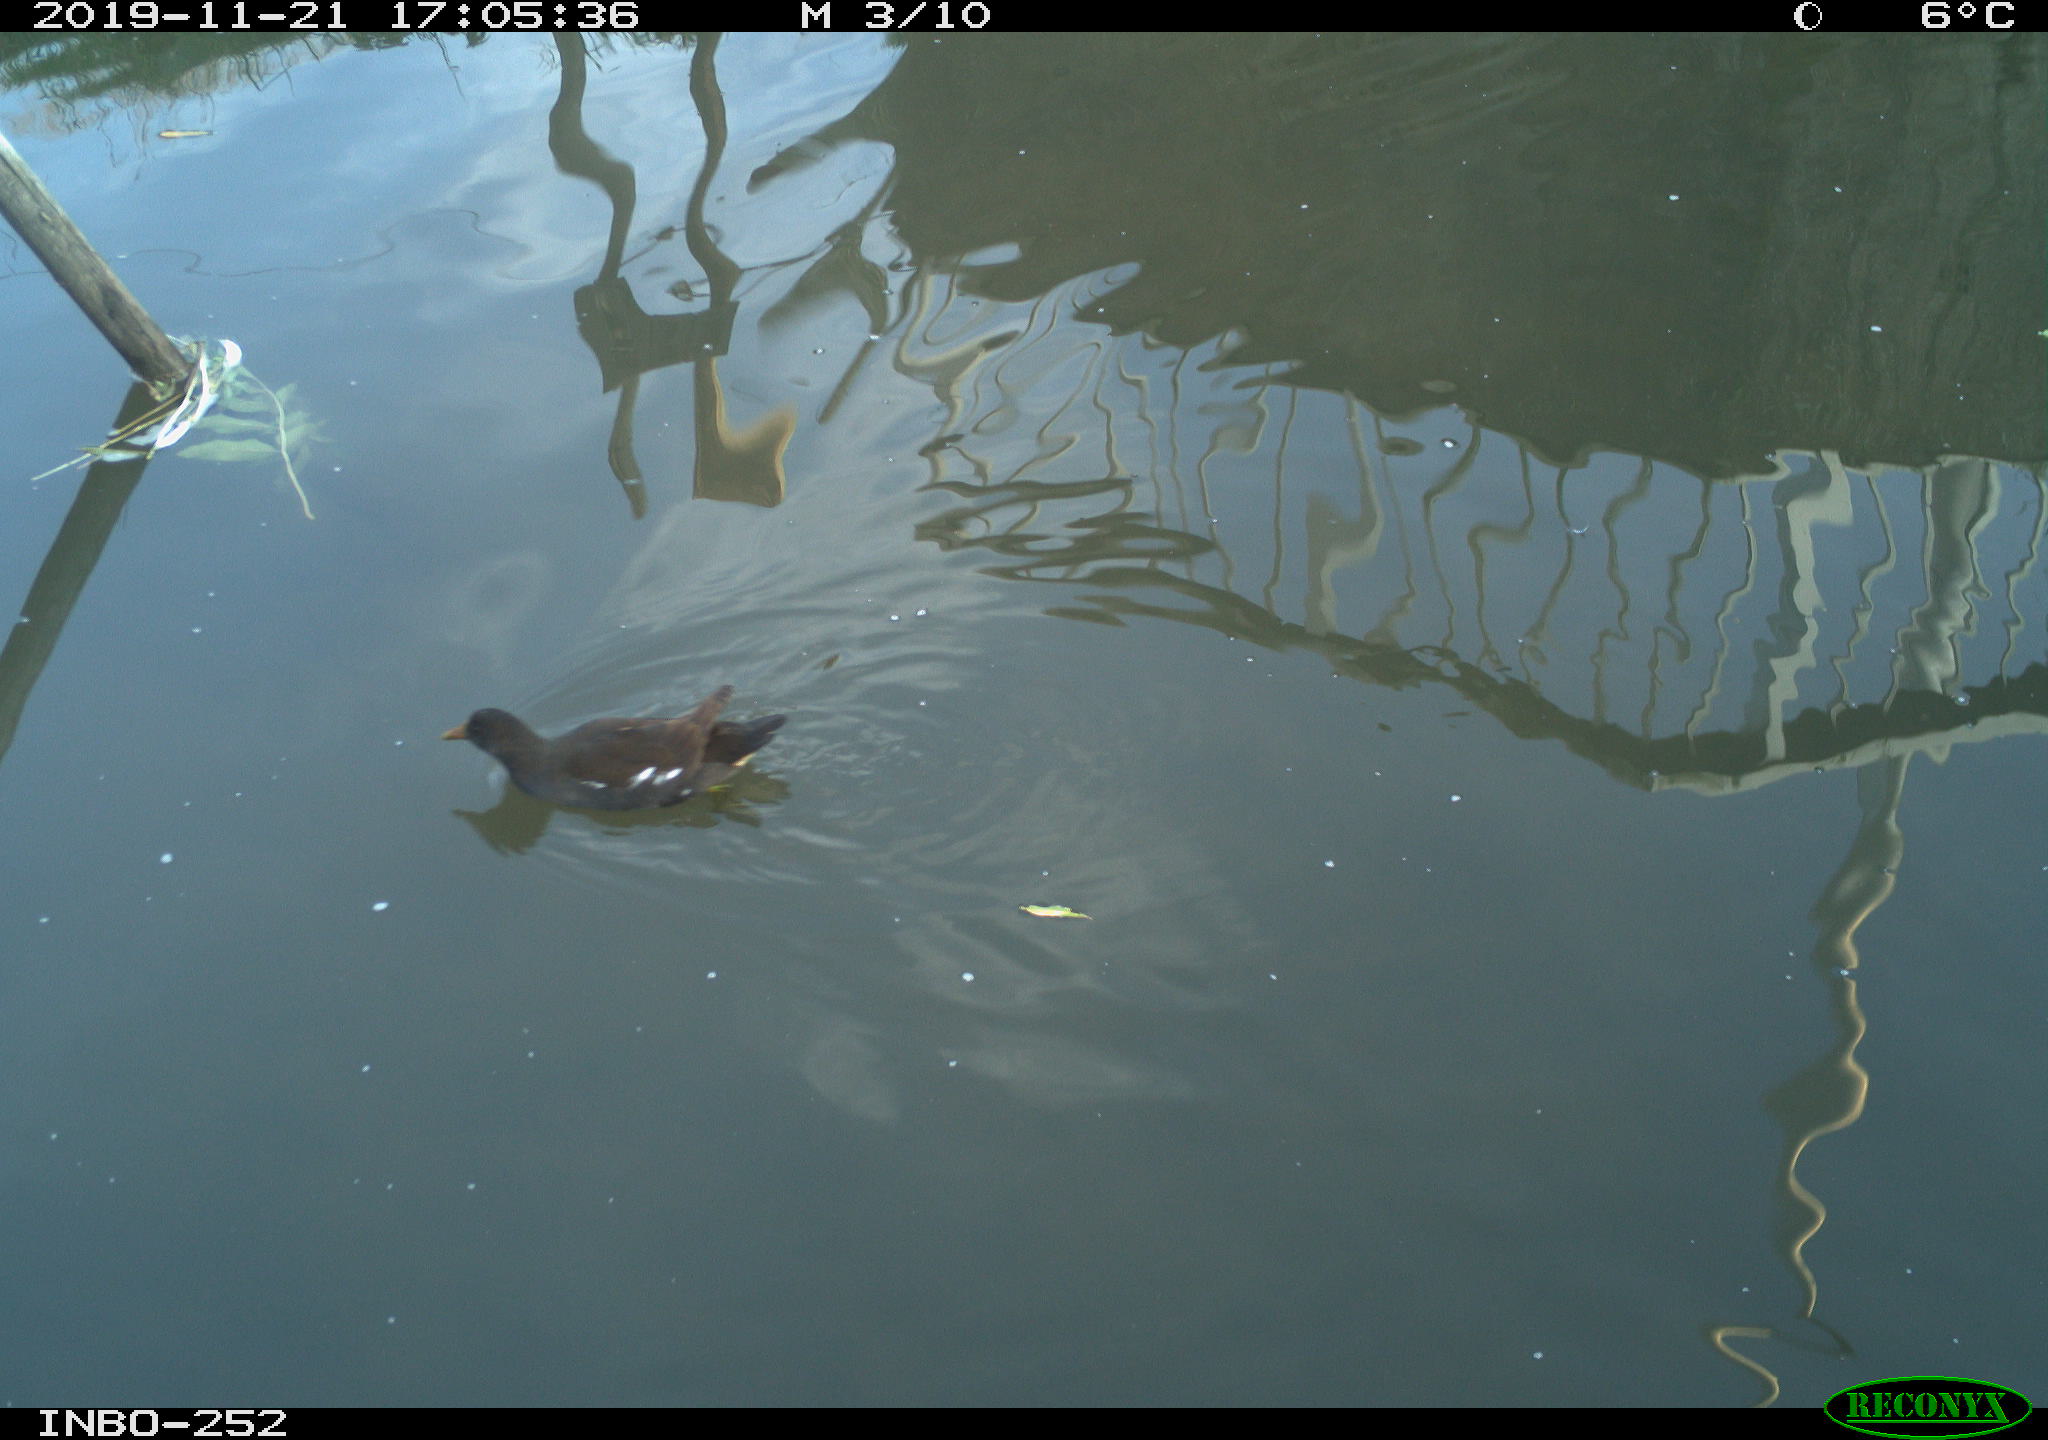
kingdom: Animalia
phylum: Chordata
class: Aves
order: Gruiformes
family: Rallidae
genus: Gallinula
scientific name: Gallinula chloropus
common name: Common moorhen
